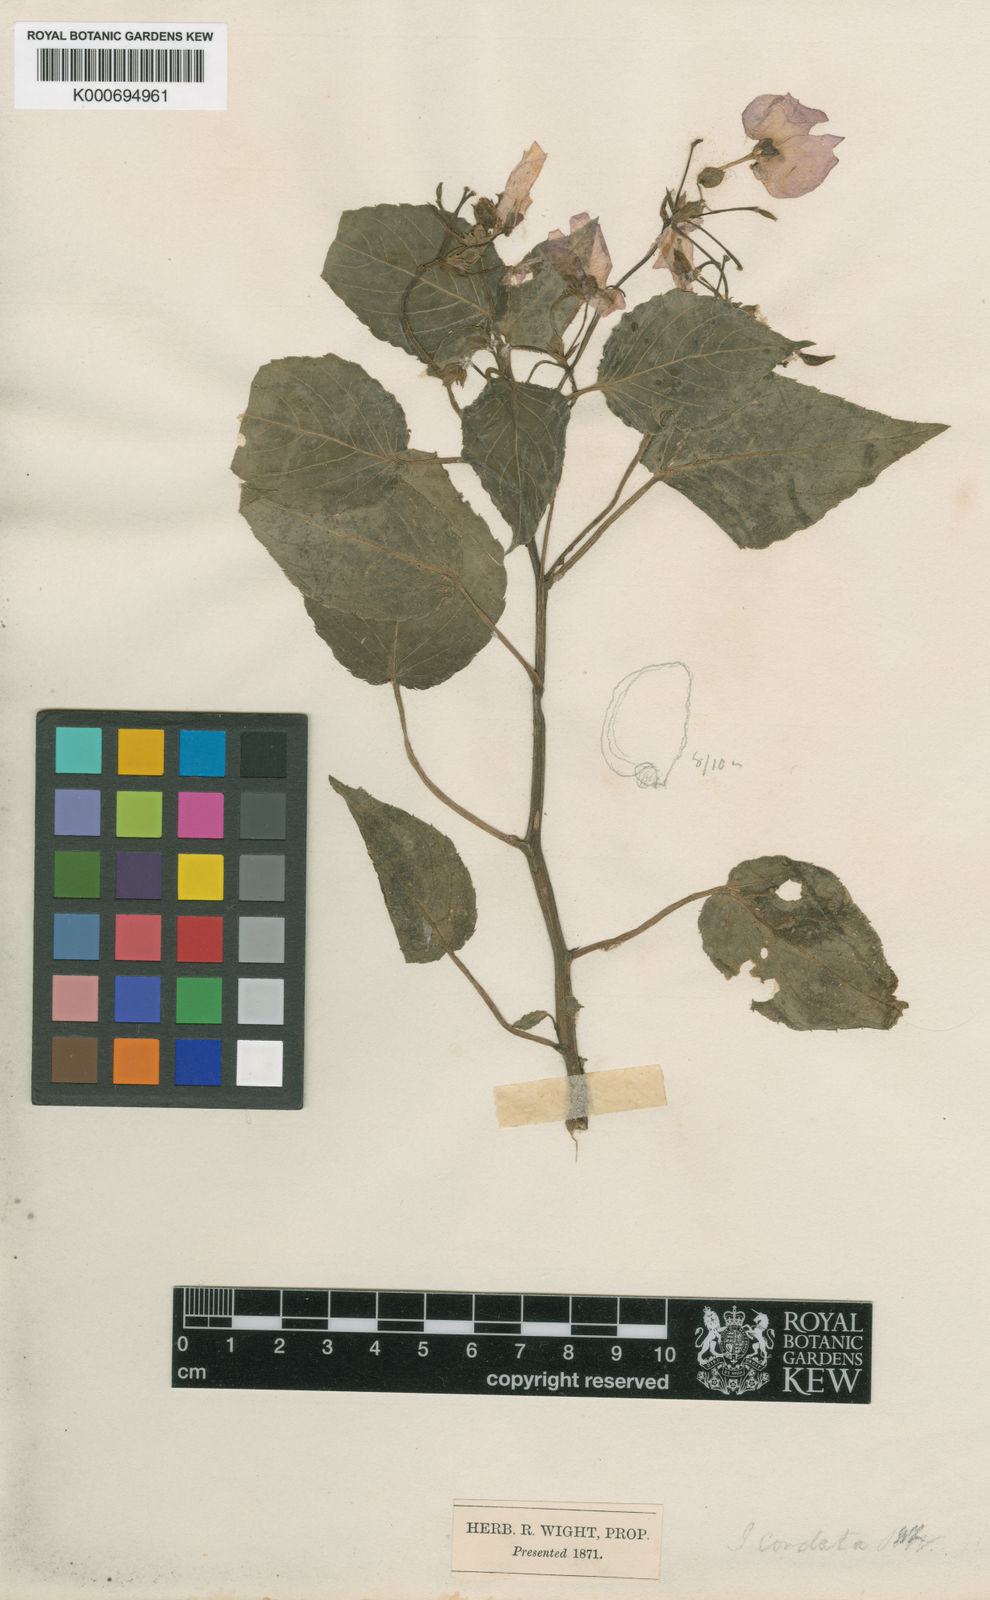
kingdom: Plantae
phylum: Tracheophyta
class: Magnoliopsida
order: Ericales
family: Balsaminaceae
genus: Impatiens
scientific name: Impatiens cordata
